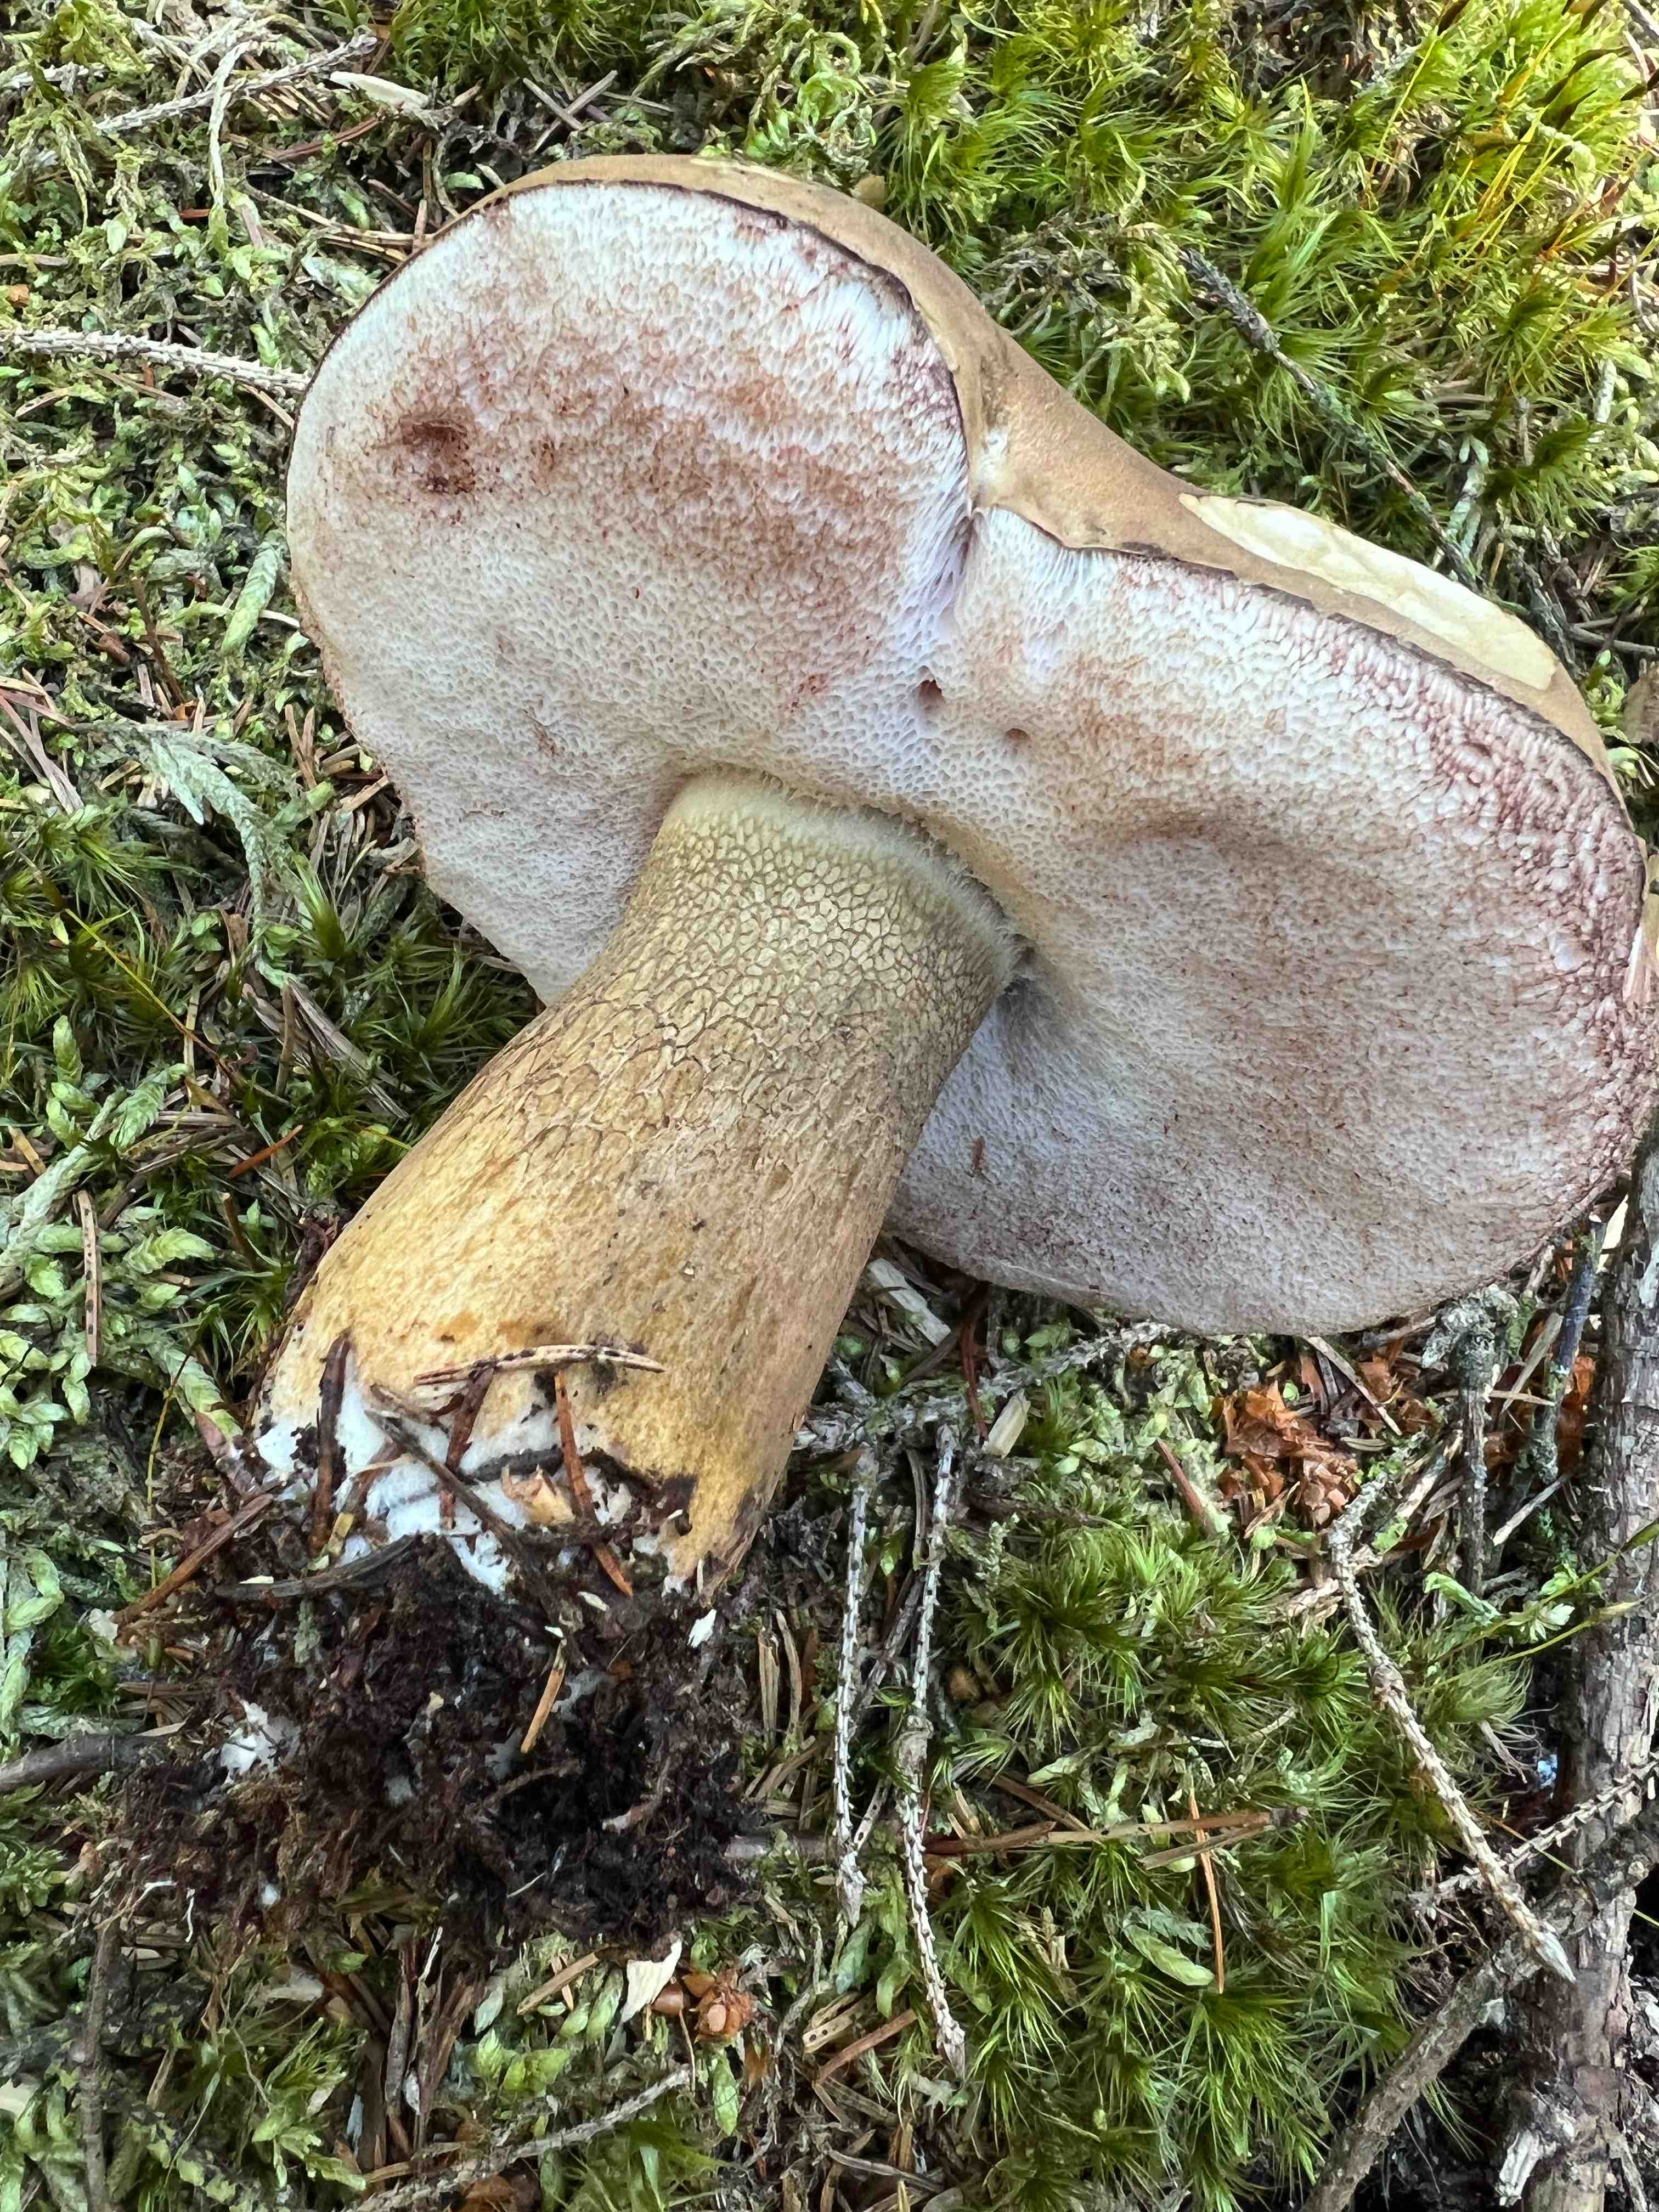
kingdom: Fungi
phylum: Basidiomycota
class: Agaricomycetes
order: Boletales
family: Boletaceae
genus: Tylopilus
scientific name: Tylopilus felleus
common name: galderørhat
